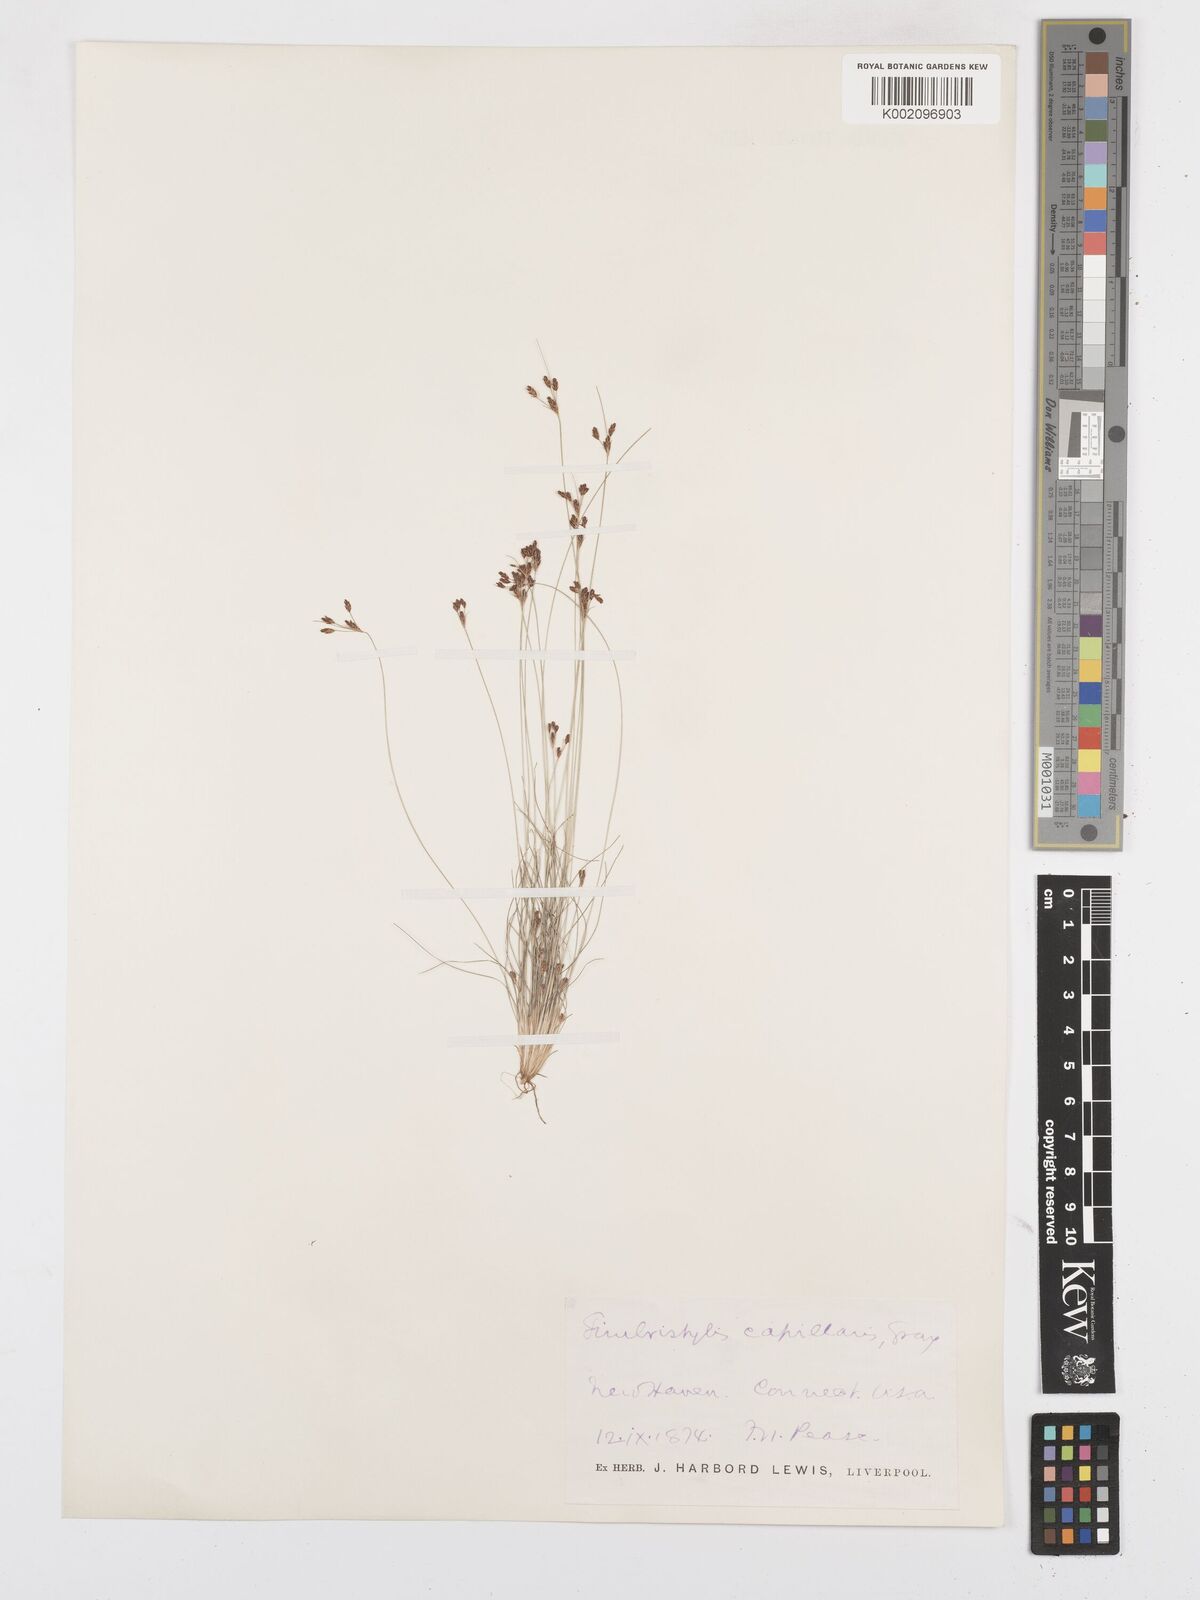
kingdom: Plantae
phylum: Tracheophyta
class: Liliopsida
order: Poales
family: Cyperaceae
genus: Bulbostylis
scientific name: Bulbostylis capillaris
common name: Densetuft hairsedge
